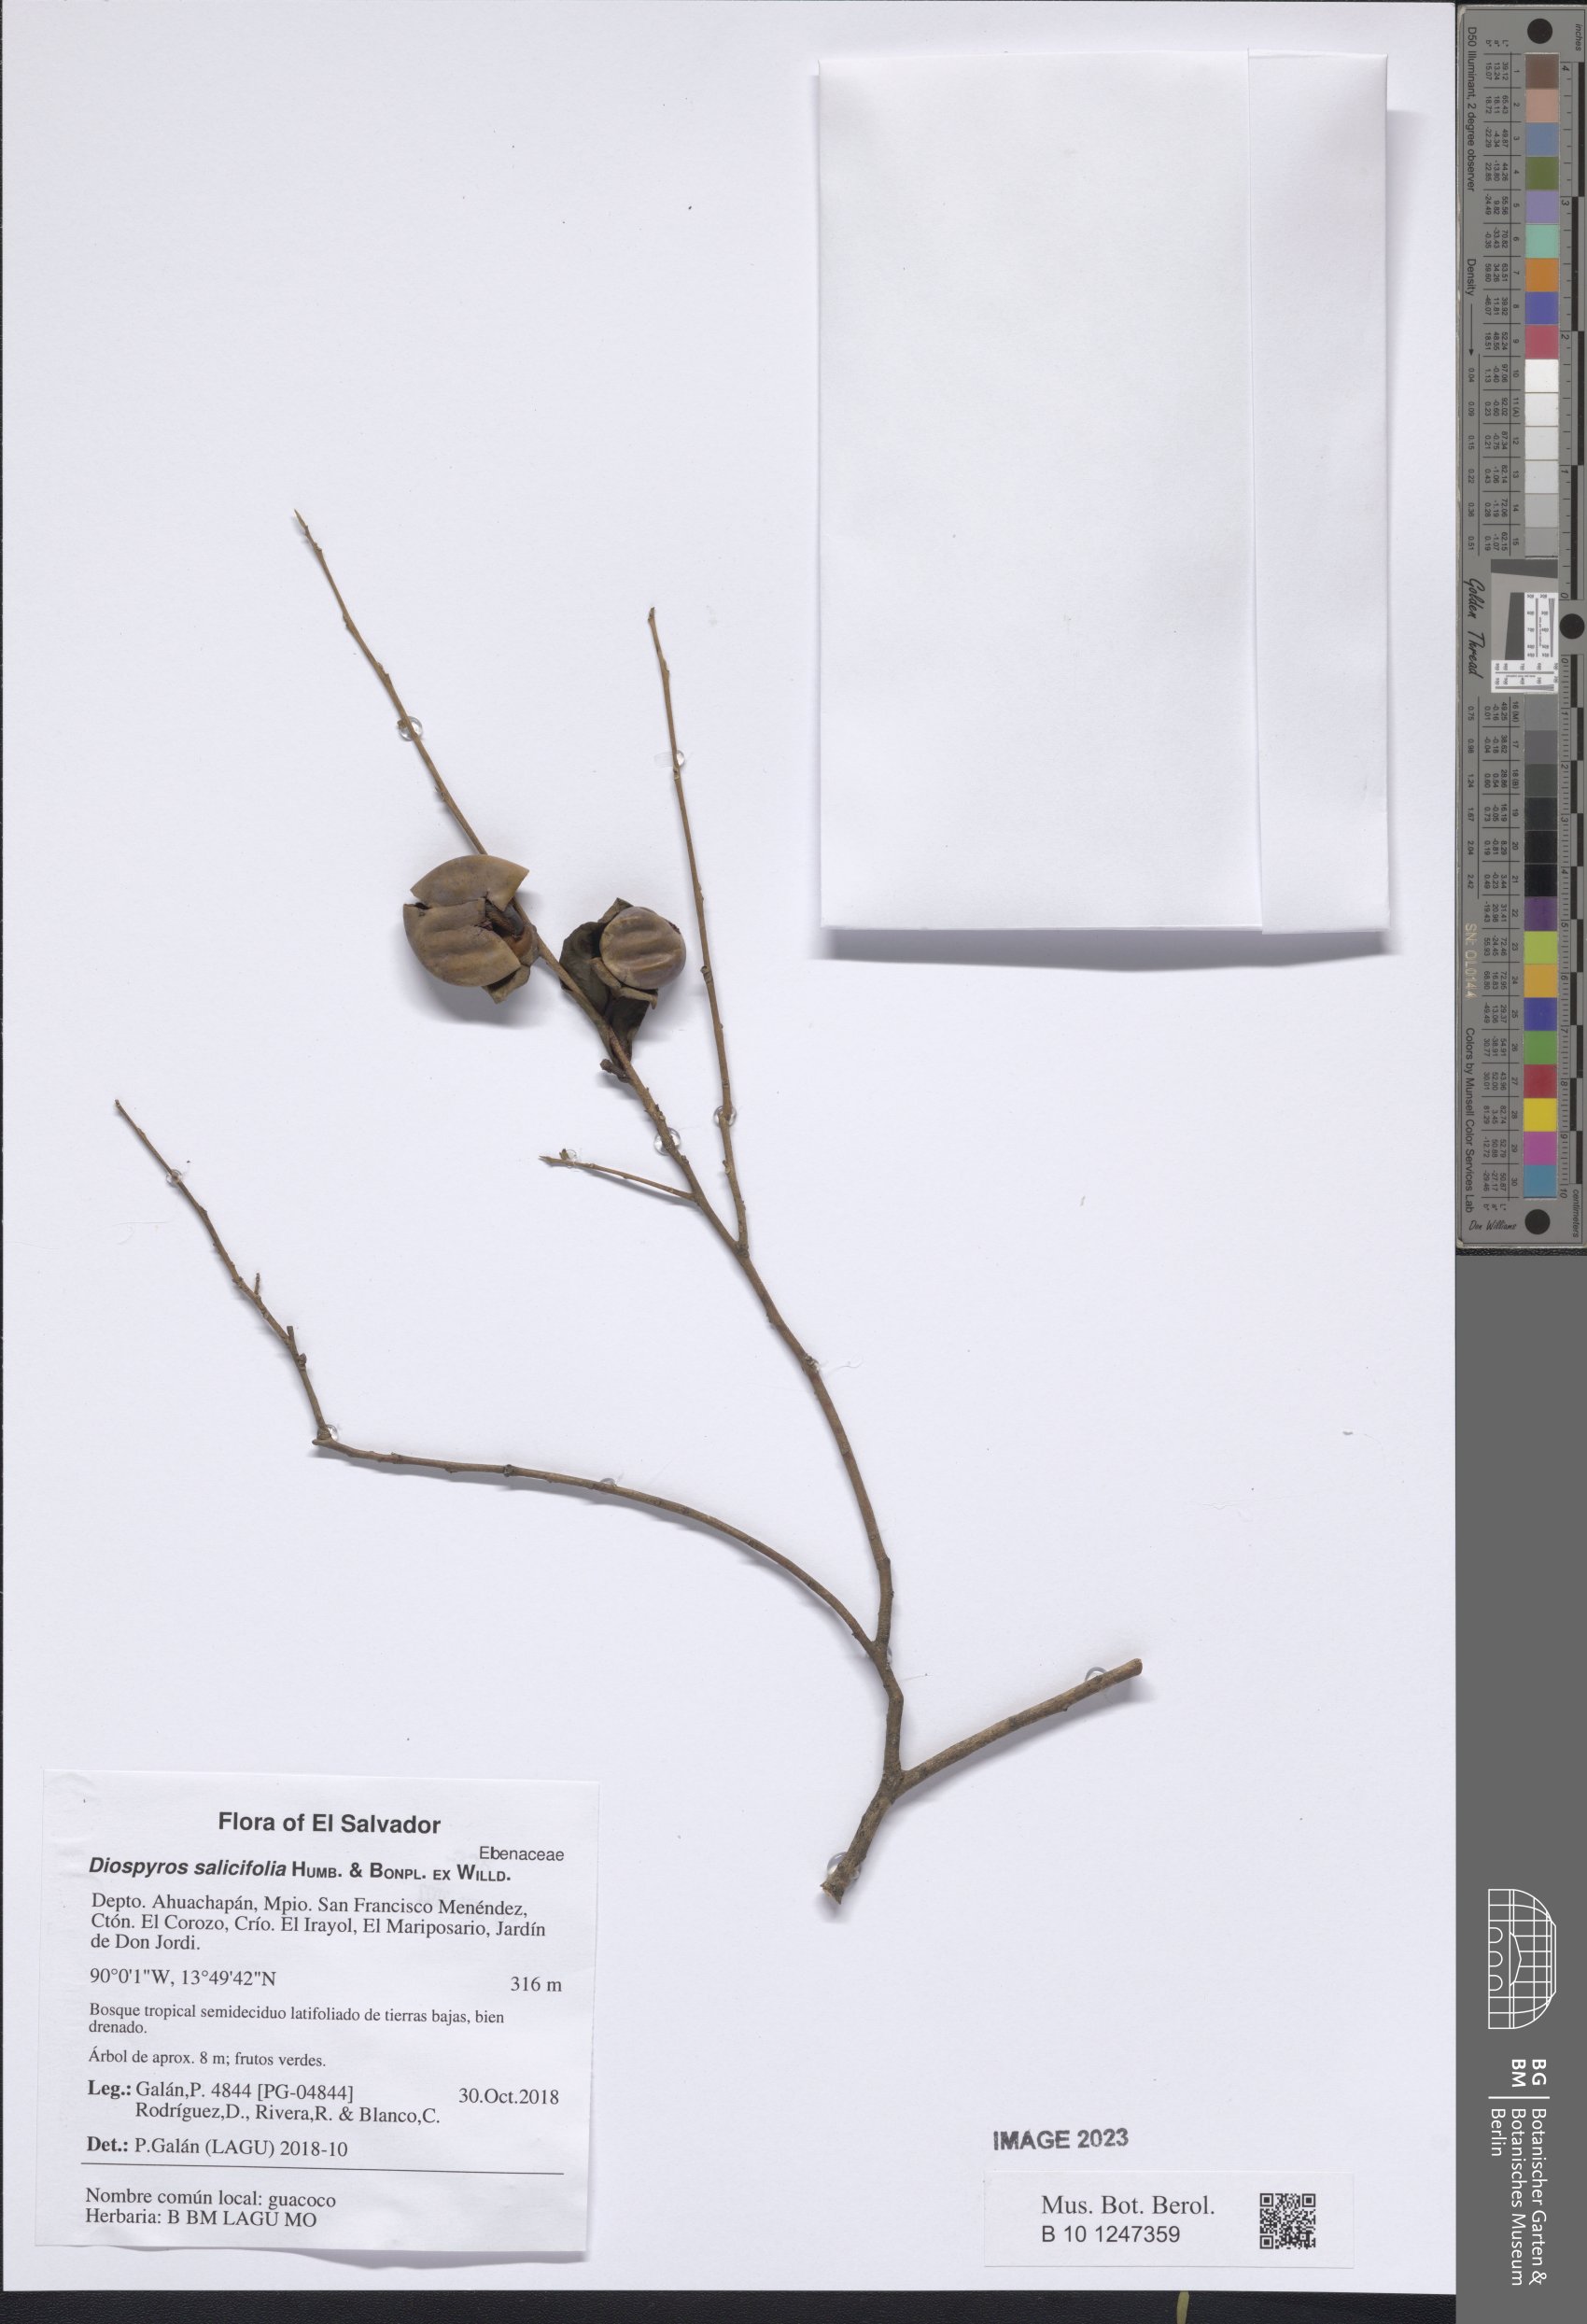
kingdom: Plantae
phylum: Tracheophyta
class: Magnoliopsida
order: Ericales
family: Ebenaceae
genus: Diospyros
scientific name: Diospyros salicifolia
